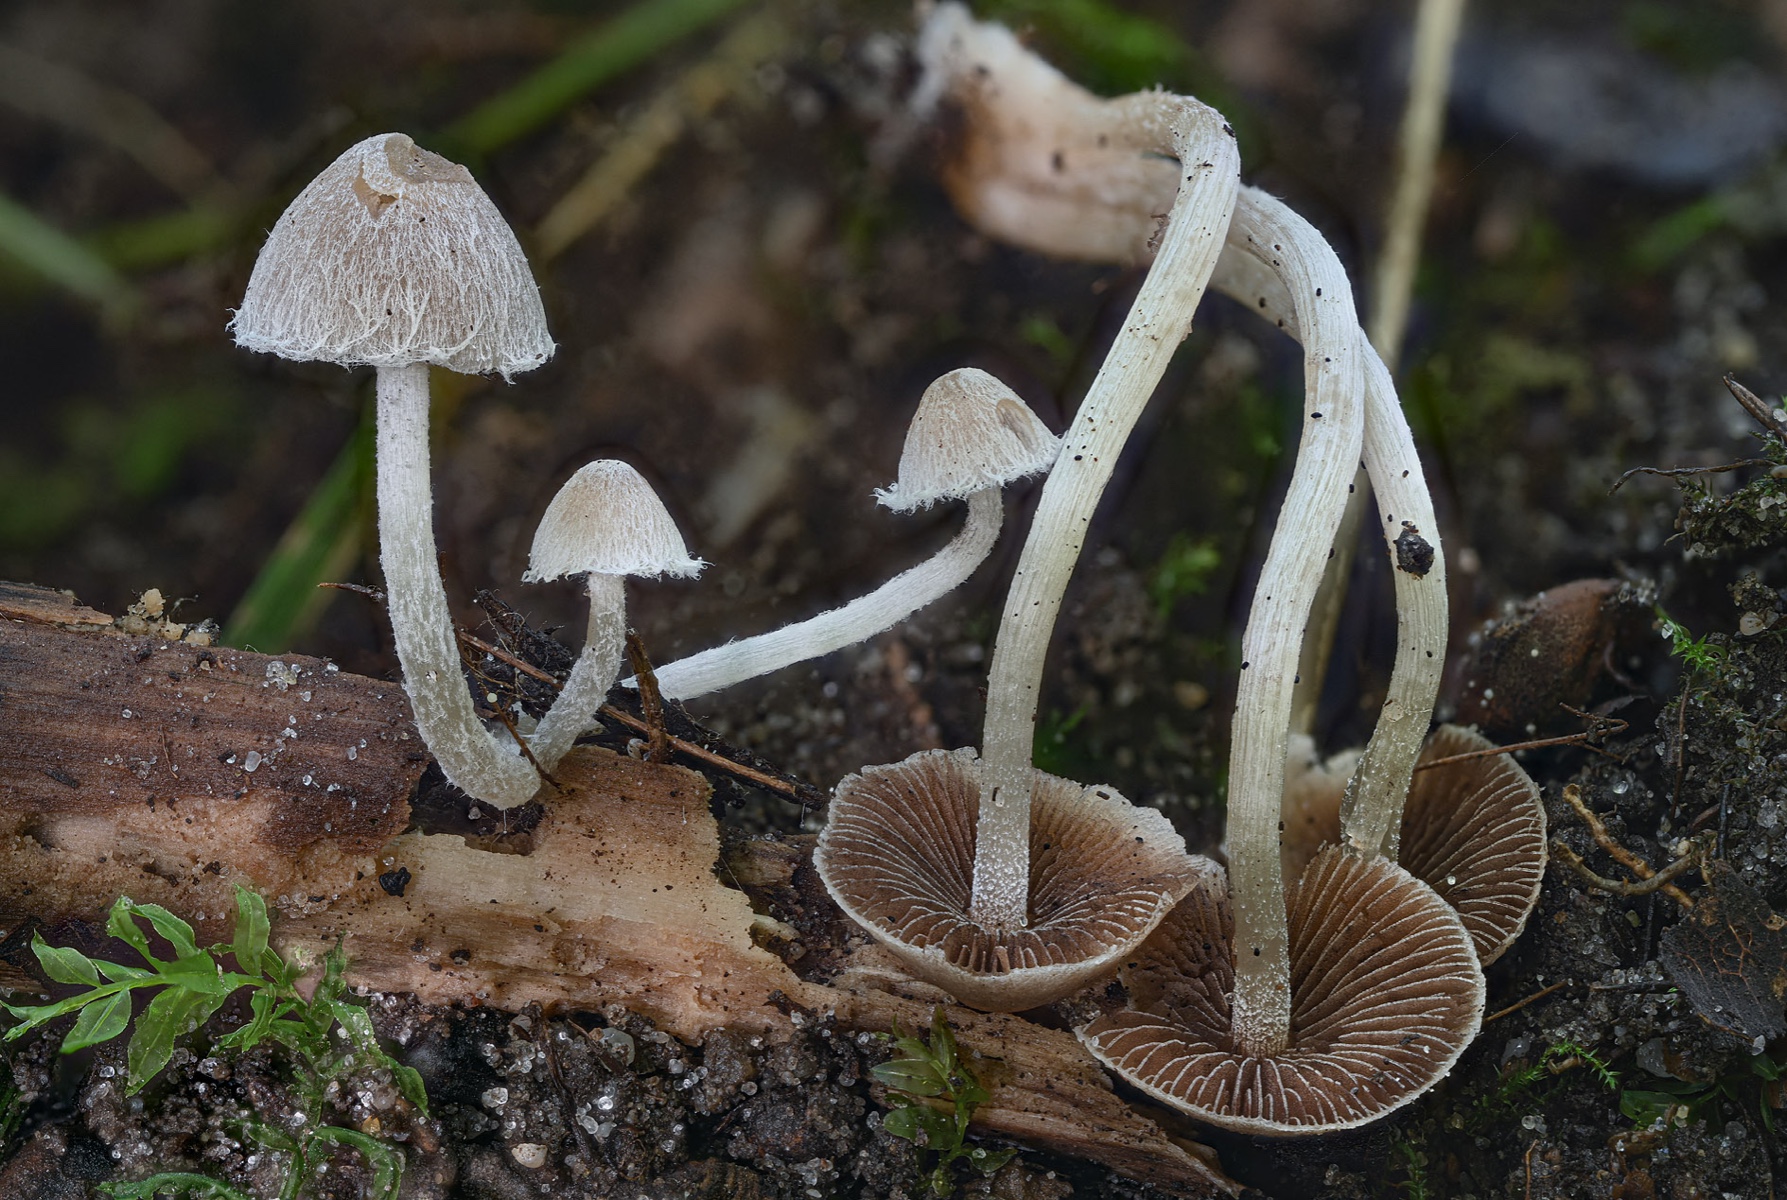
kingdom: Fungi
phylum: Basidiomycota
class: Agaricomycetes
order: Agaricales
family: Psathyrellaceae
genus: Coprinopsis
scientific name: Coprinopsis canoceps
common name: gråhåret blækhat
